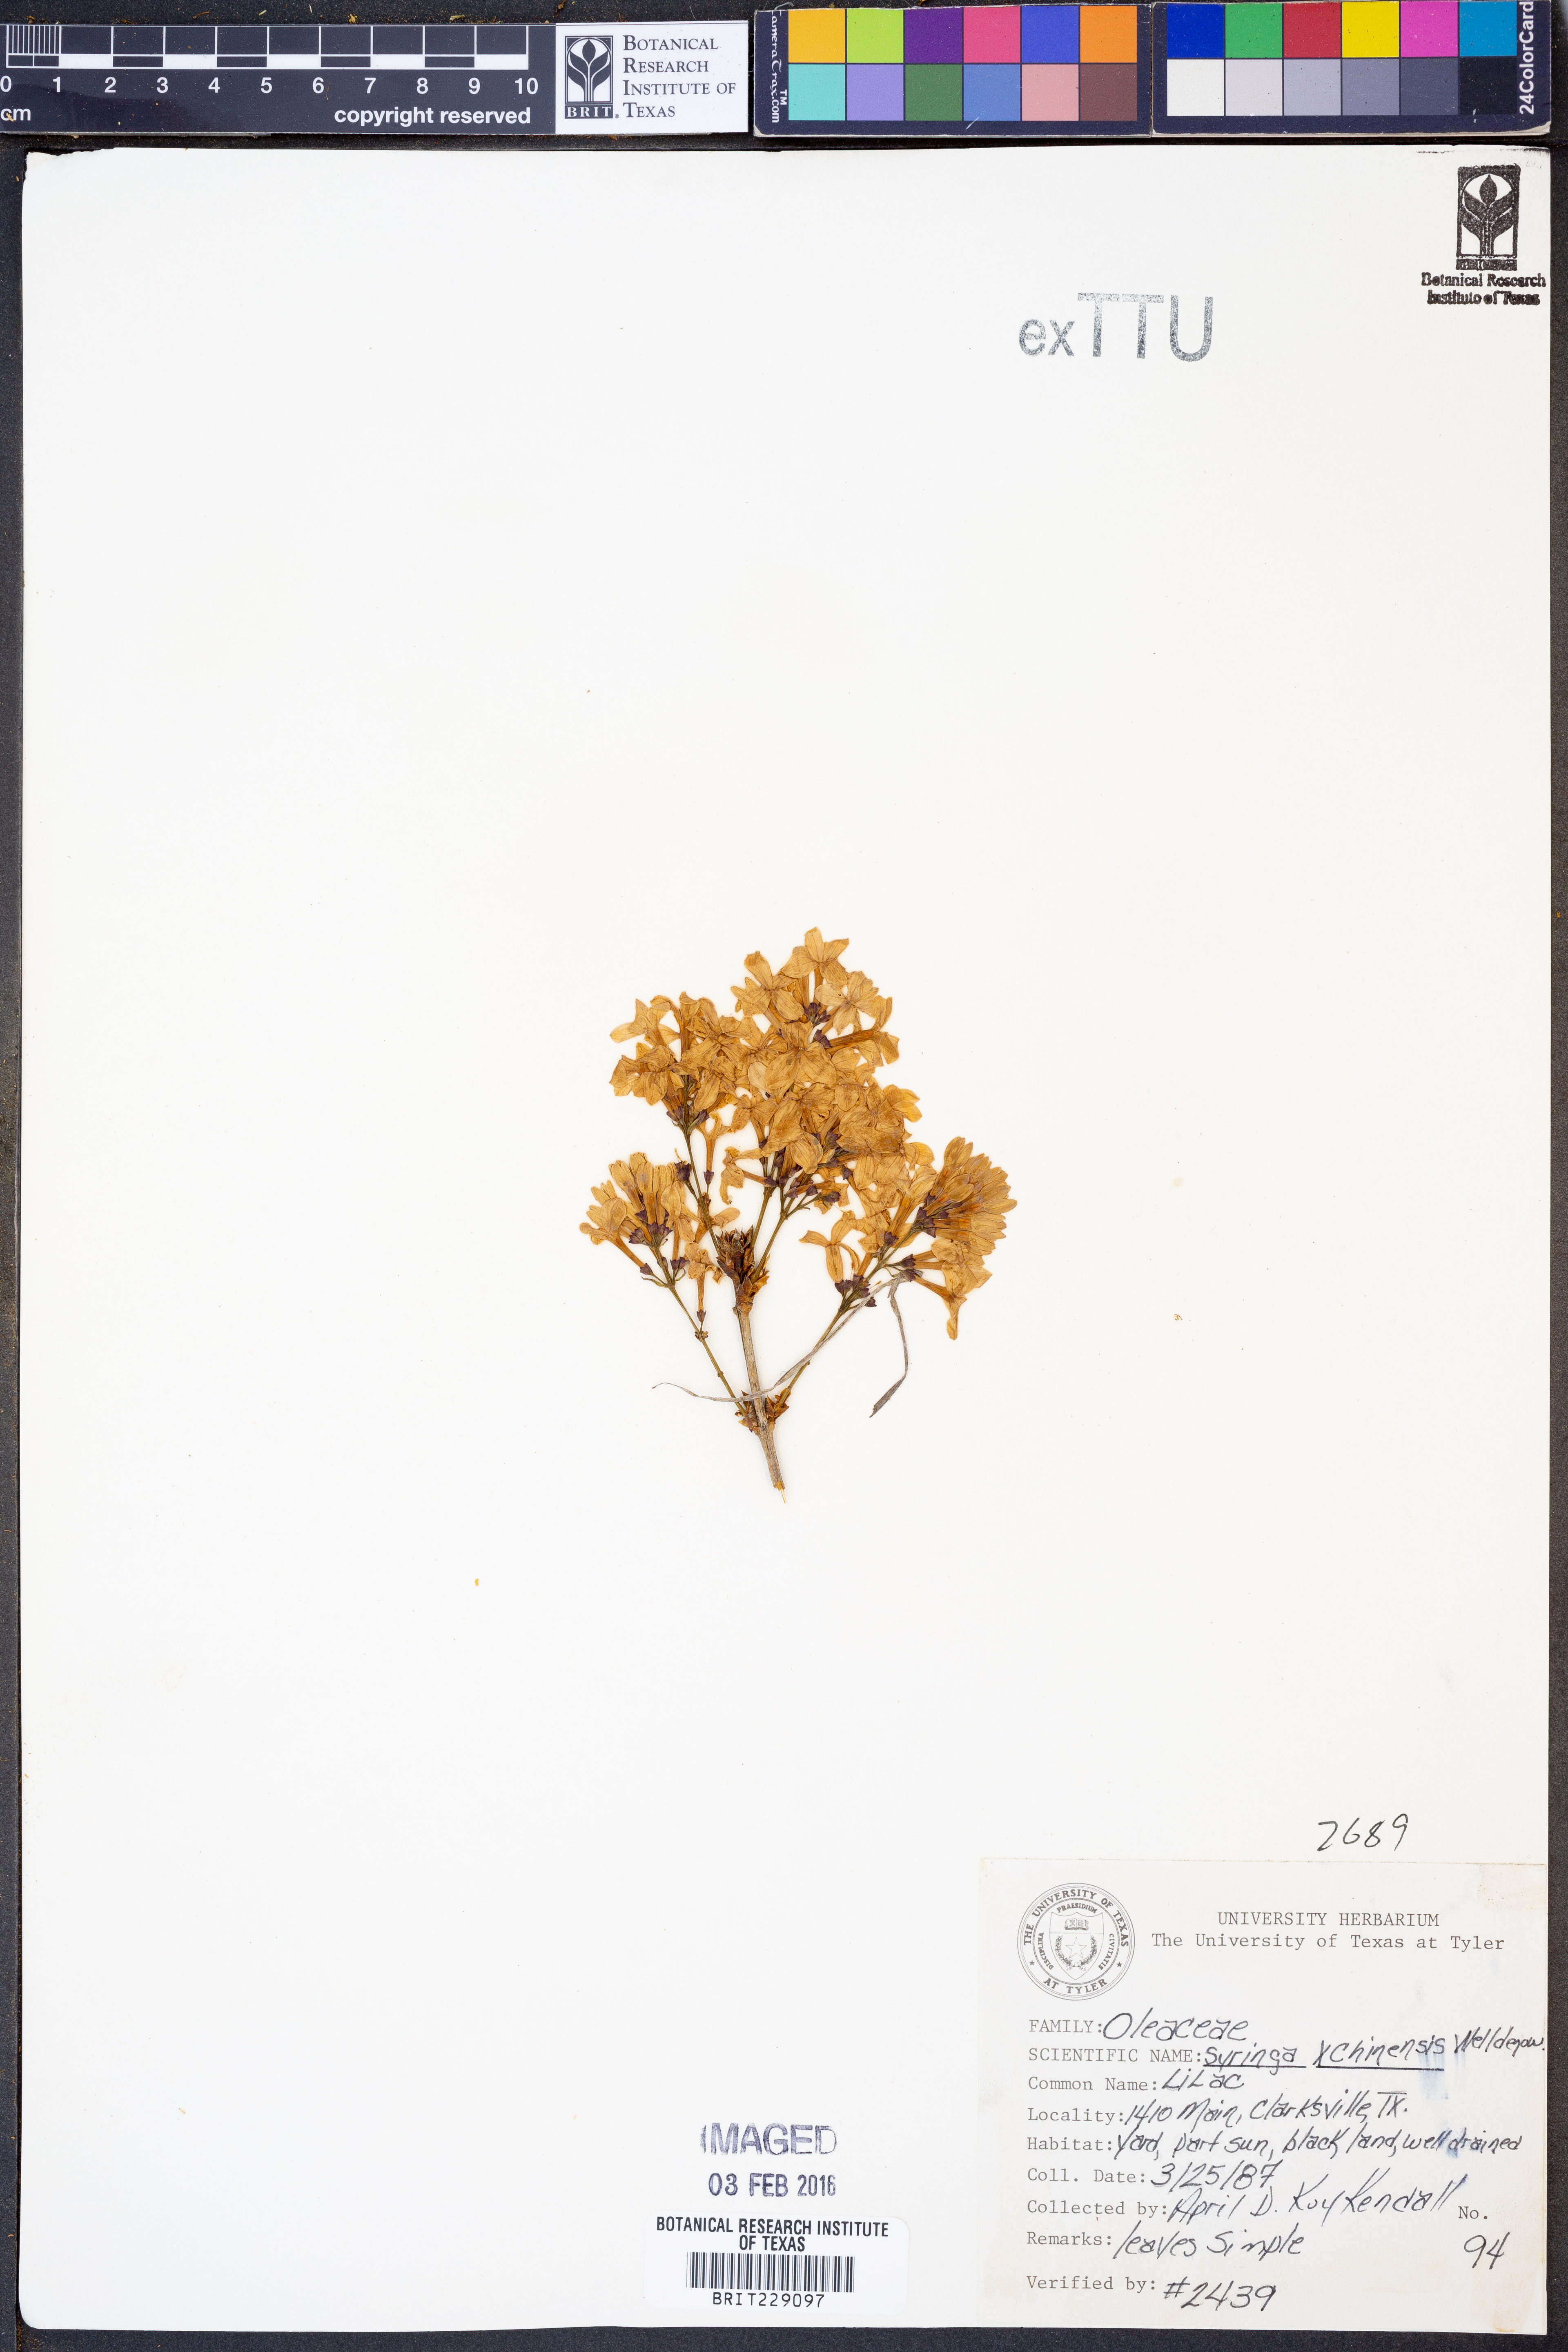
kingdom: Plantae
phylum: Tracheophyta
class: Magnoliopsida
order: Lamiales
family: Oleaceae
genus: Syringa
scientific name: Syringa chinensis
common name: Chinese lilac
